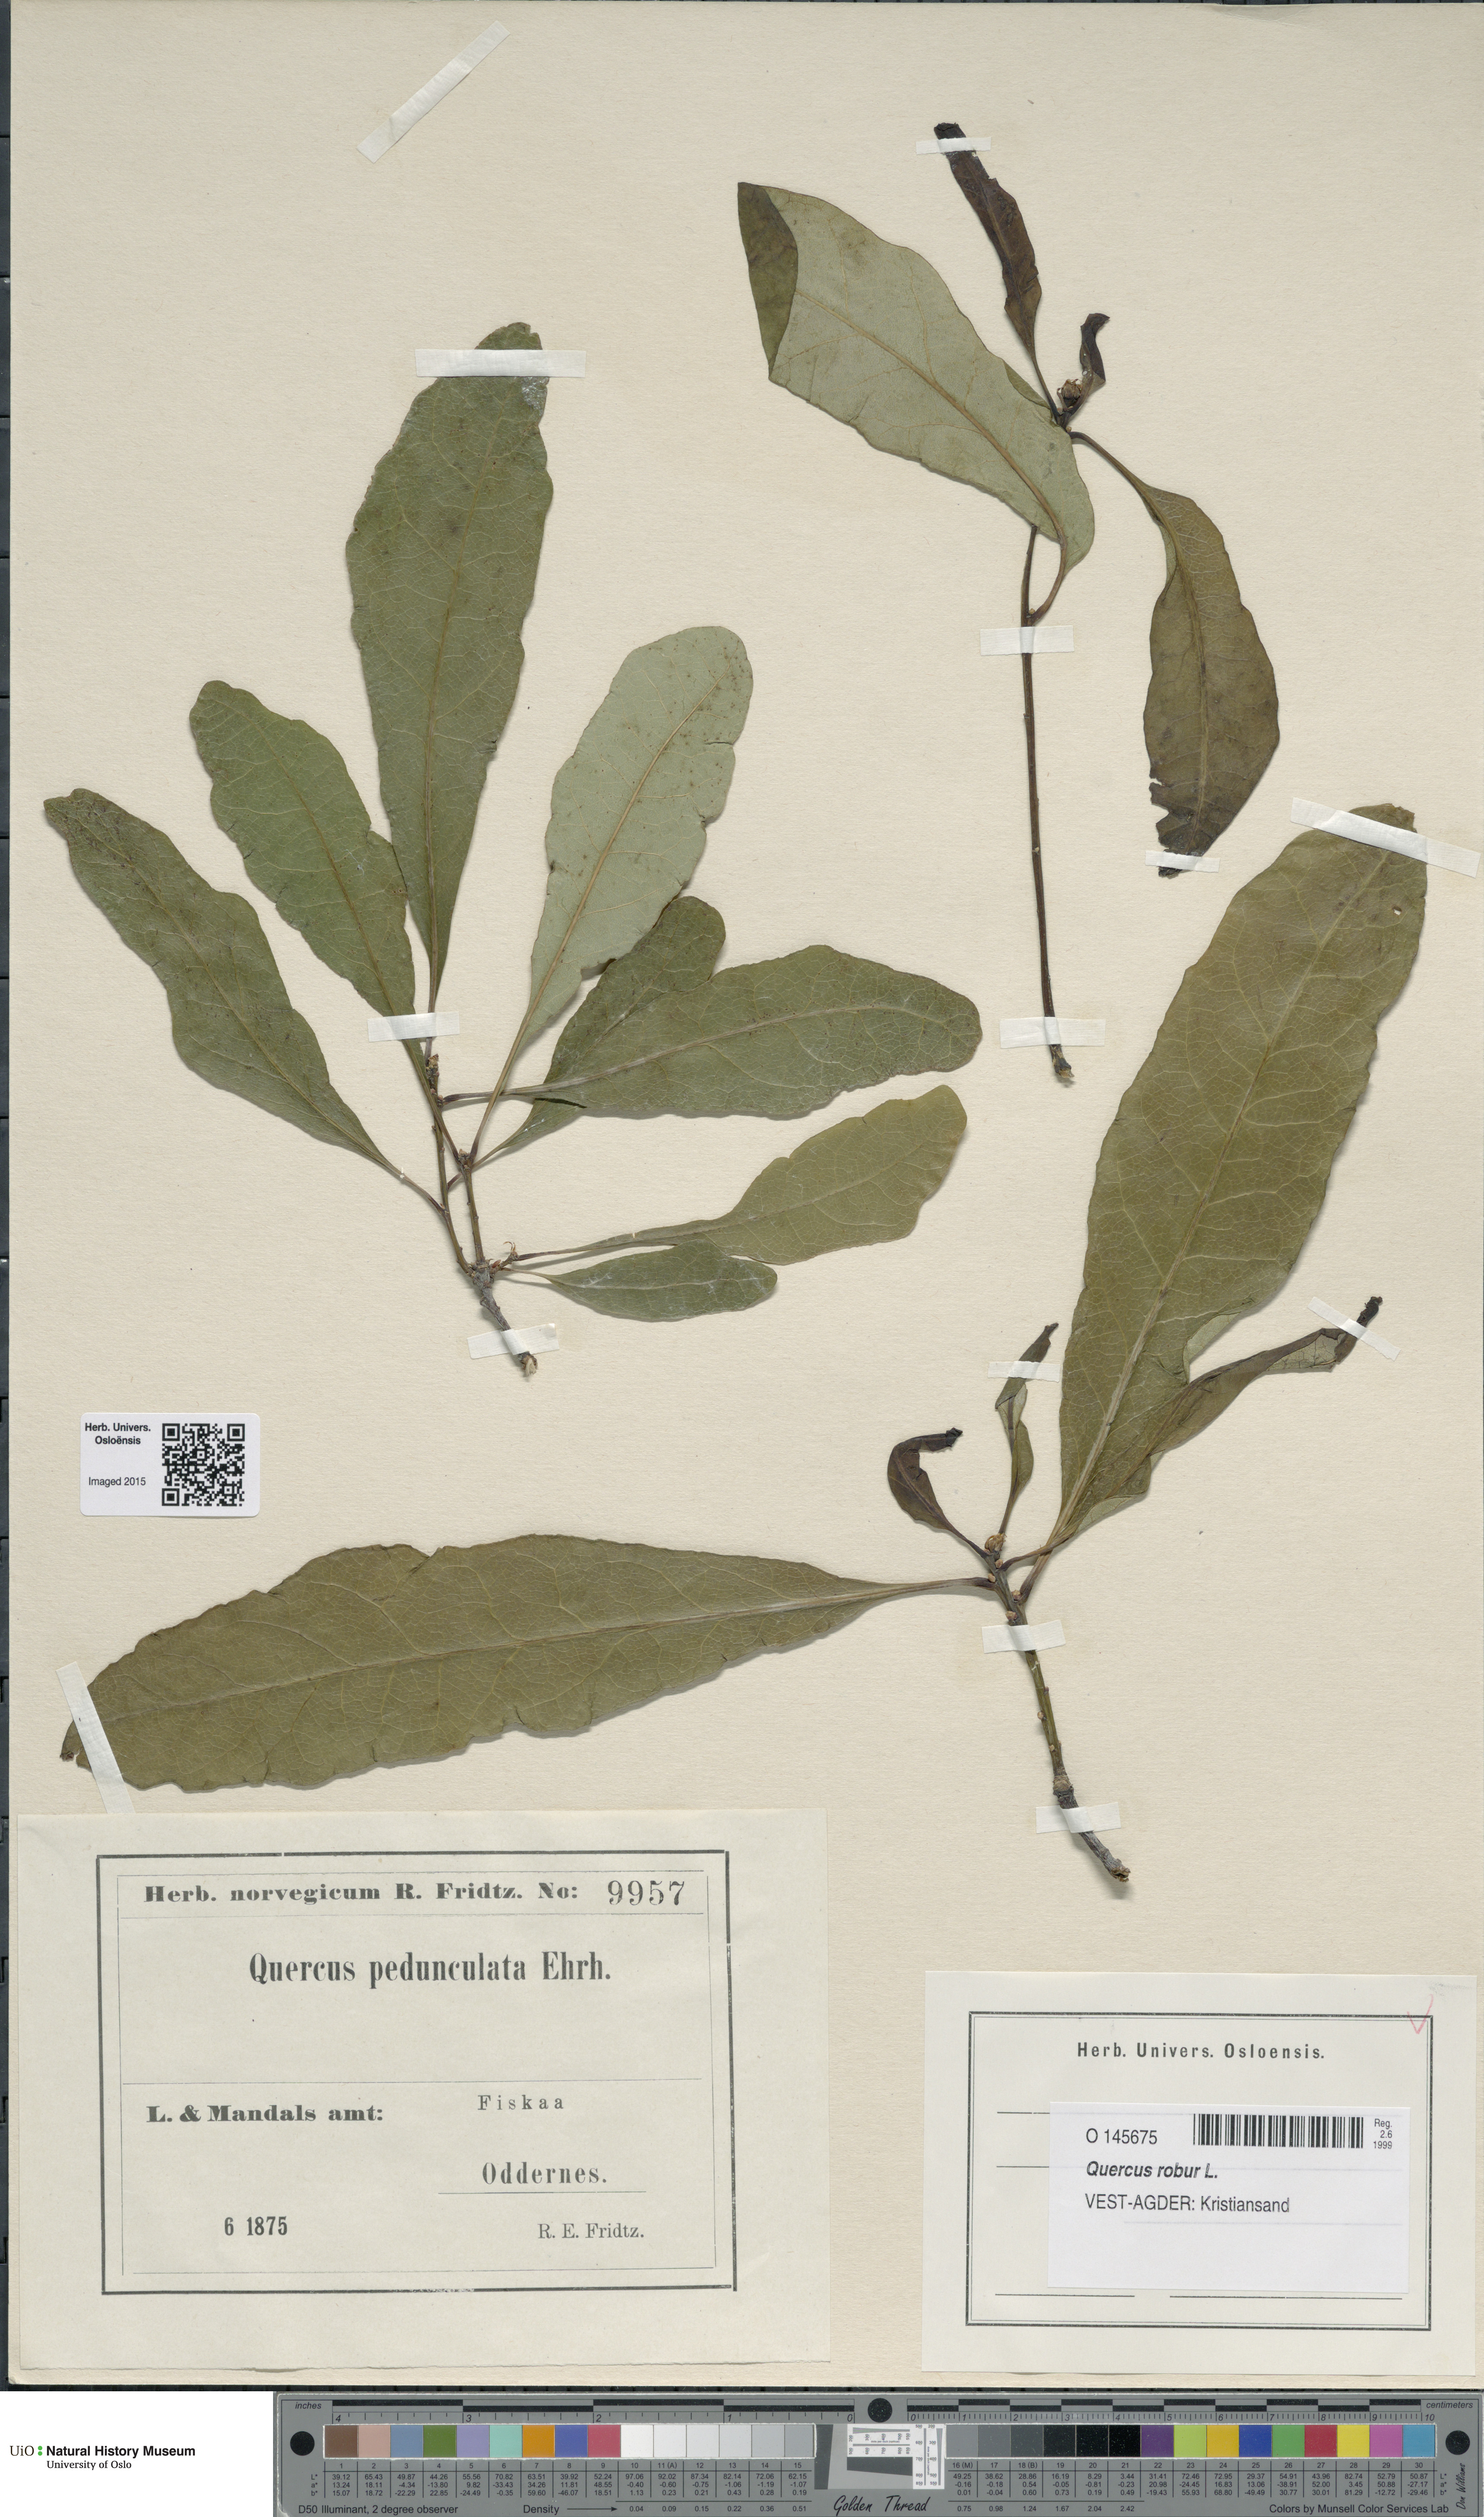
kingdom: Plantae
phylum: Tracheophyta
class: Magnoliopsida
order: Fagales
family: Fagaceae
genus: Quercus
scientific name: Quercus robur
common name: Pedunculate oak
